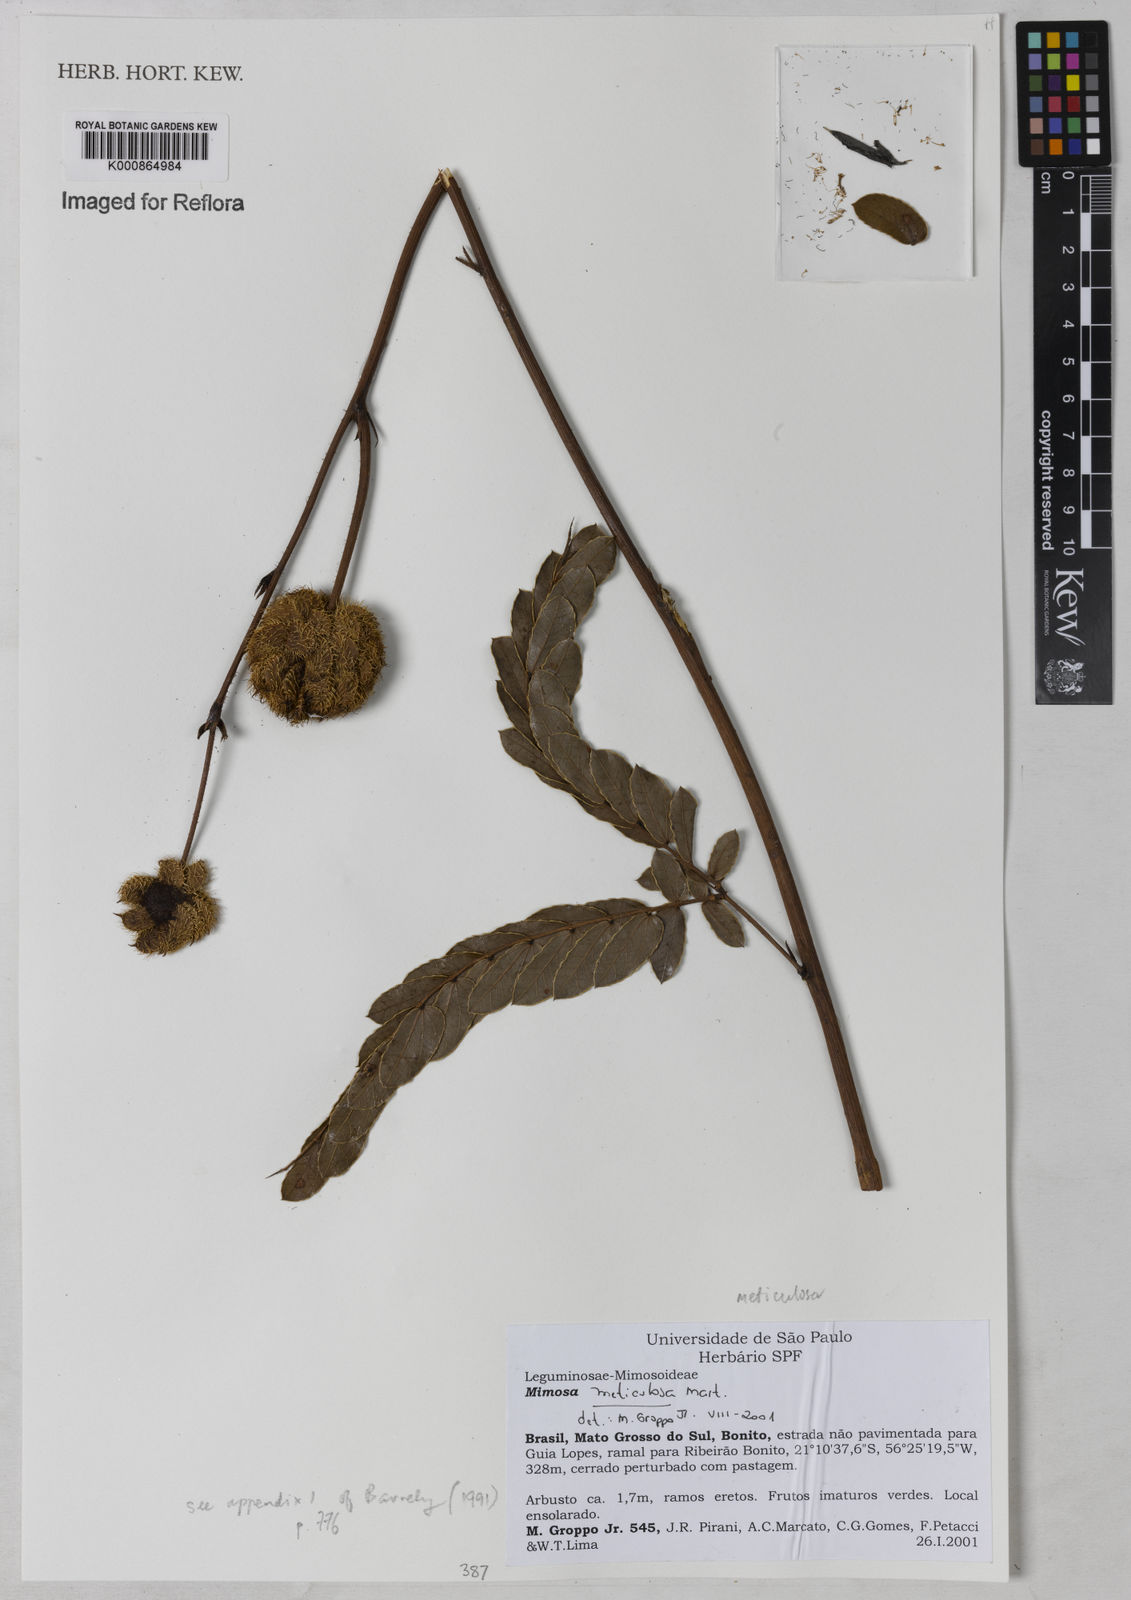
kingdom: Plantae
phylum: Tracheophyta
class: Magnoliopsida
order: Fabales
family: Fabaceae
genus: Mimosa
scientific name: Mimosa dolens
